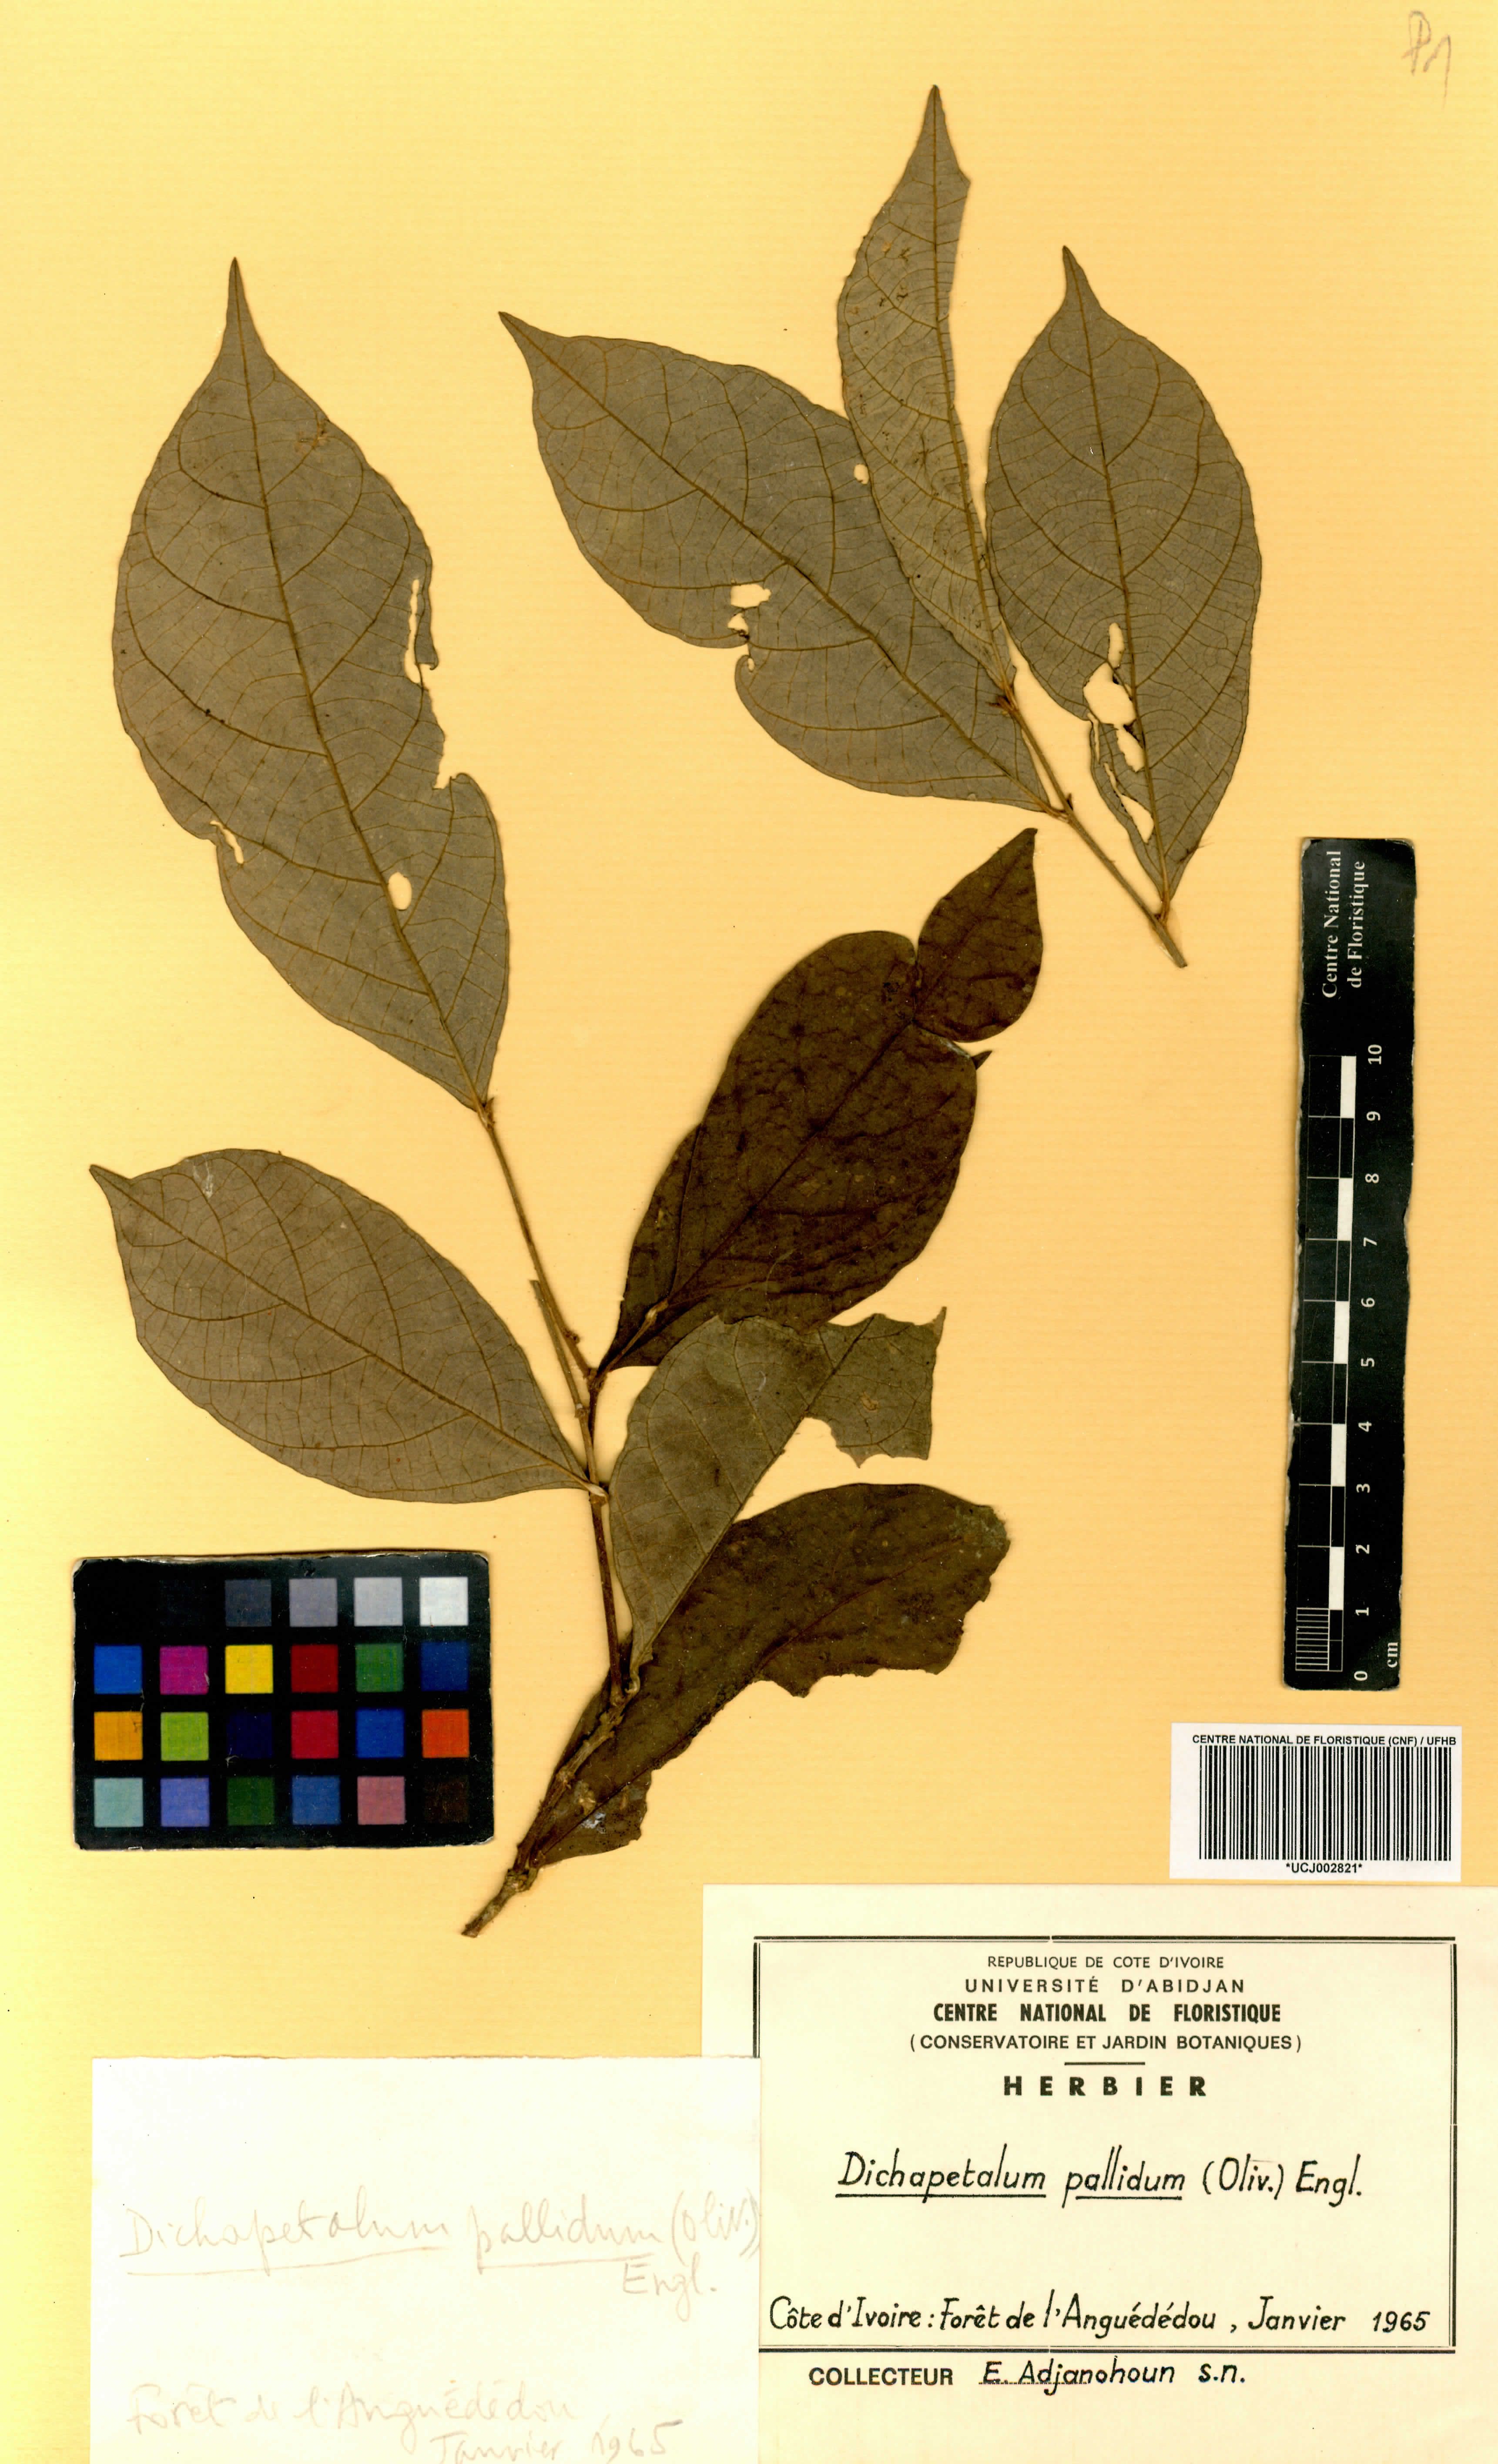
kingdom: Plantae
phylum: Tracheophyta
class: Magnoliopsida
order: Malpighiales
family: Dichapetalaceae
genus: Dichapetalum
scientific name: Dichapetalum pallidum
